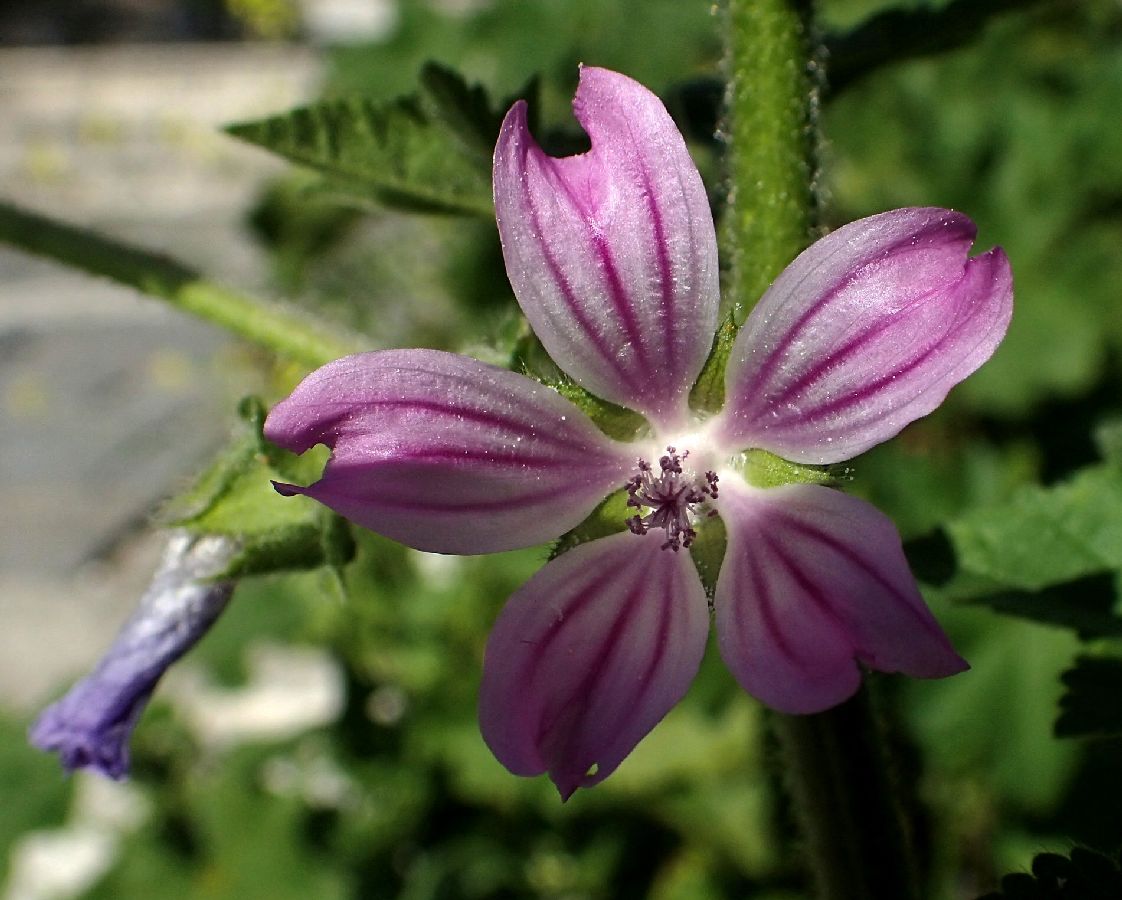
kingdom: Plantae
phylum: Tracheophyta
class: Magnoliopsida
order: Malvales
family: Malvaceae
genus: Malva
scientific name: Malva sylvestris
